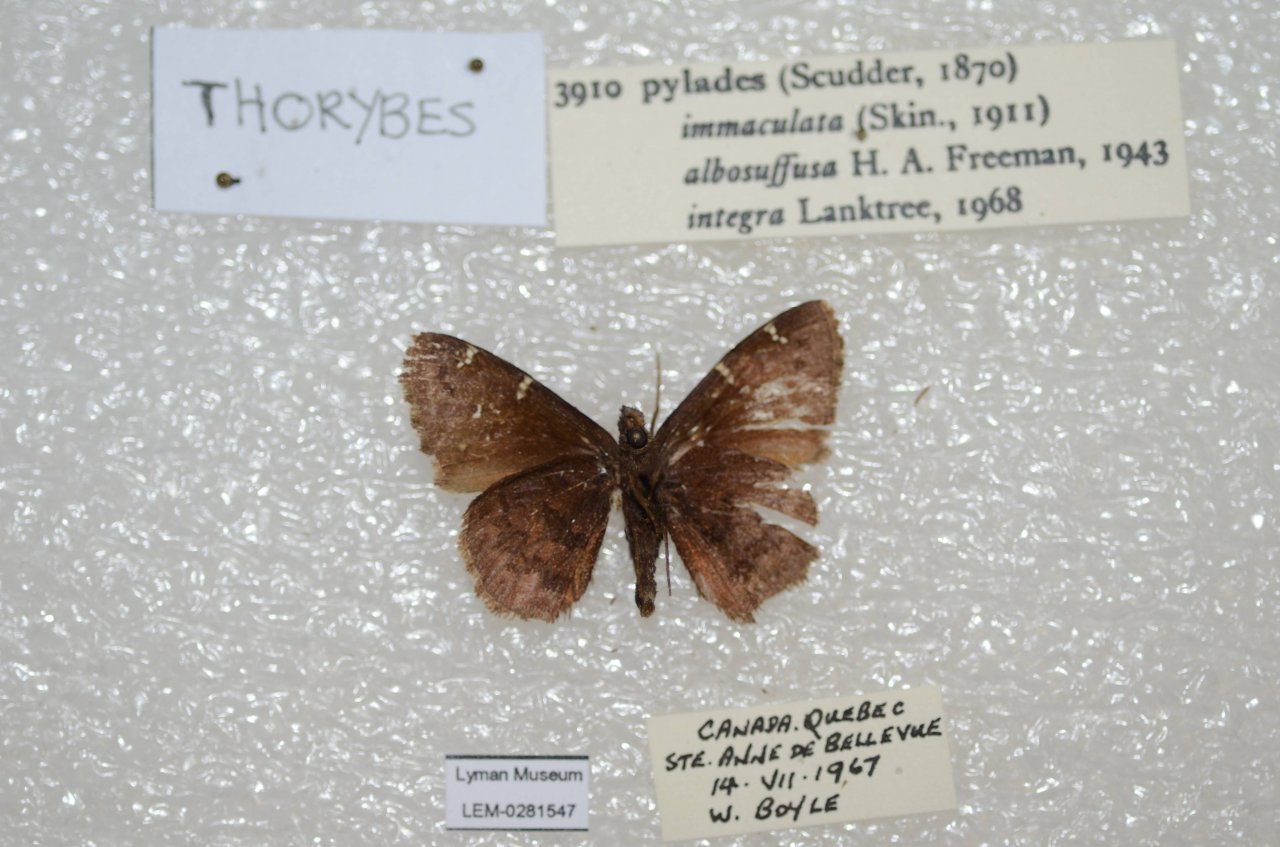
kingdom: Animalia
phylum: Arthropoda
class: Insecta
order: Lepidoptera
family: Hesperiidae
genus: Autochton
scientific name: Autochton
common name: Northern Cloudywing
